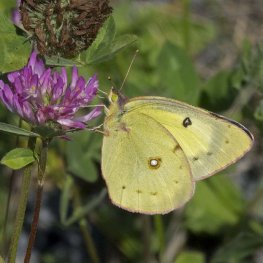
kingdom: Animalia
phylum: Arthropoda
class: Insecta
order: Lepidoptera
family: Pieridae
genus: Colias
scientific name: Colias eurytheme
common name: Orange Sulphur
